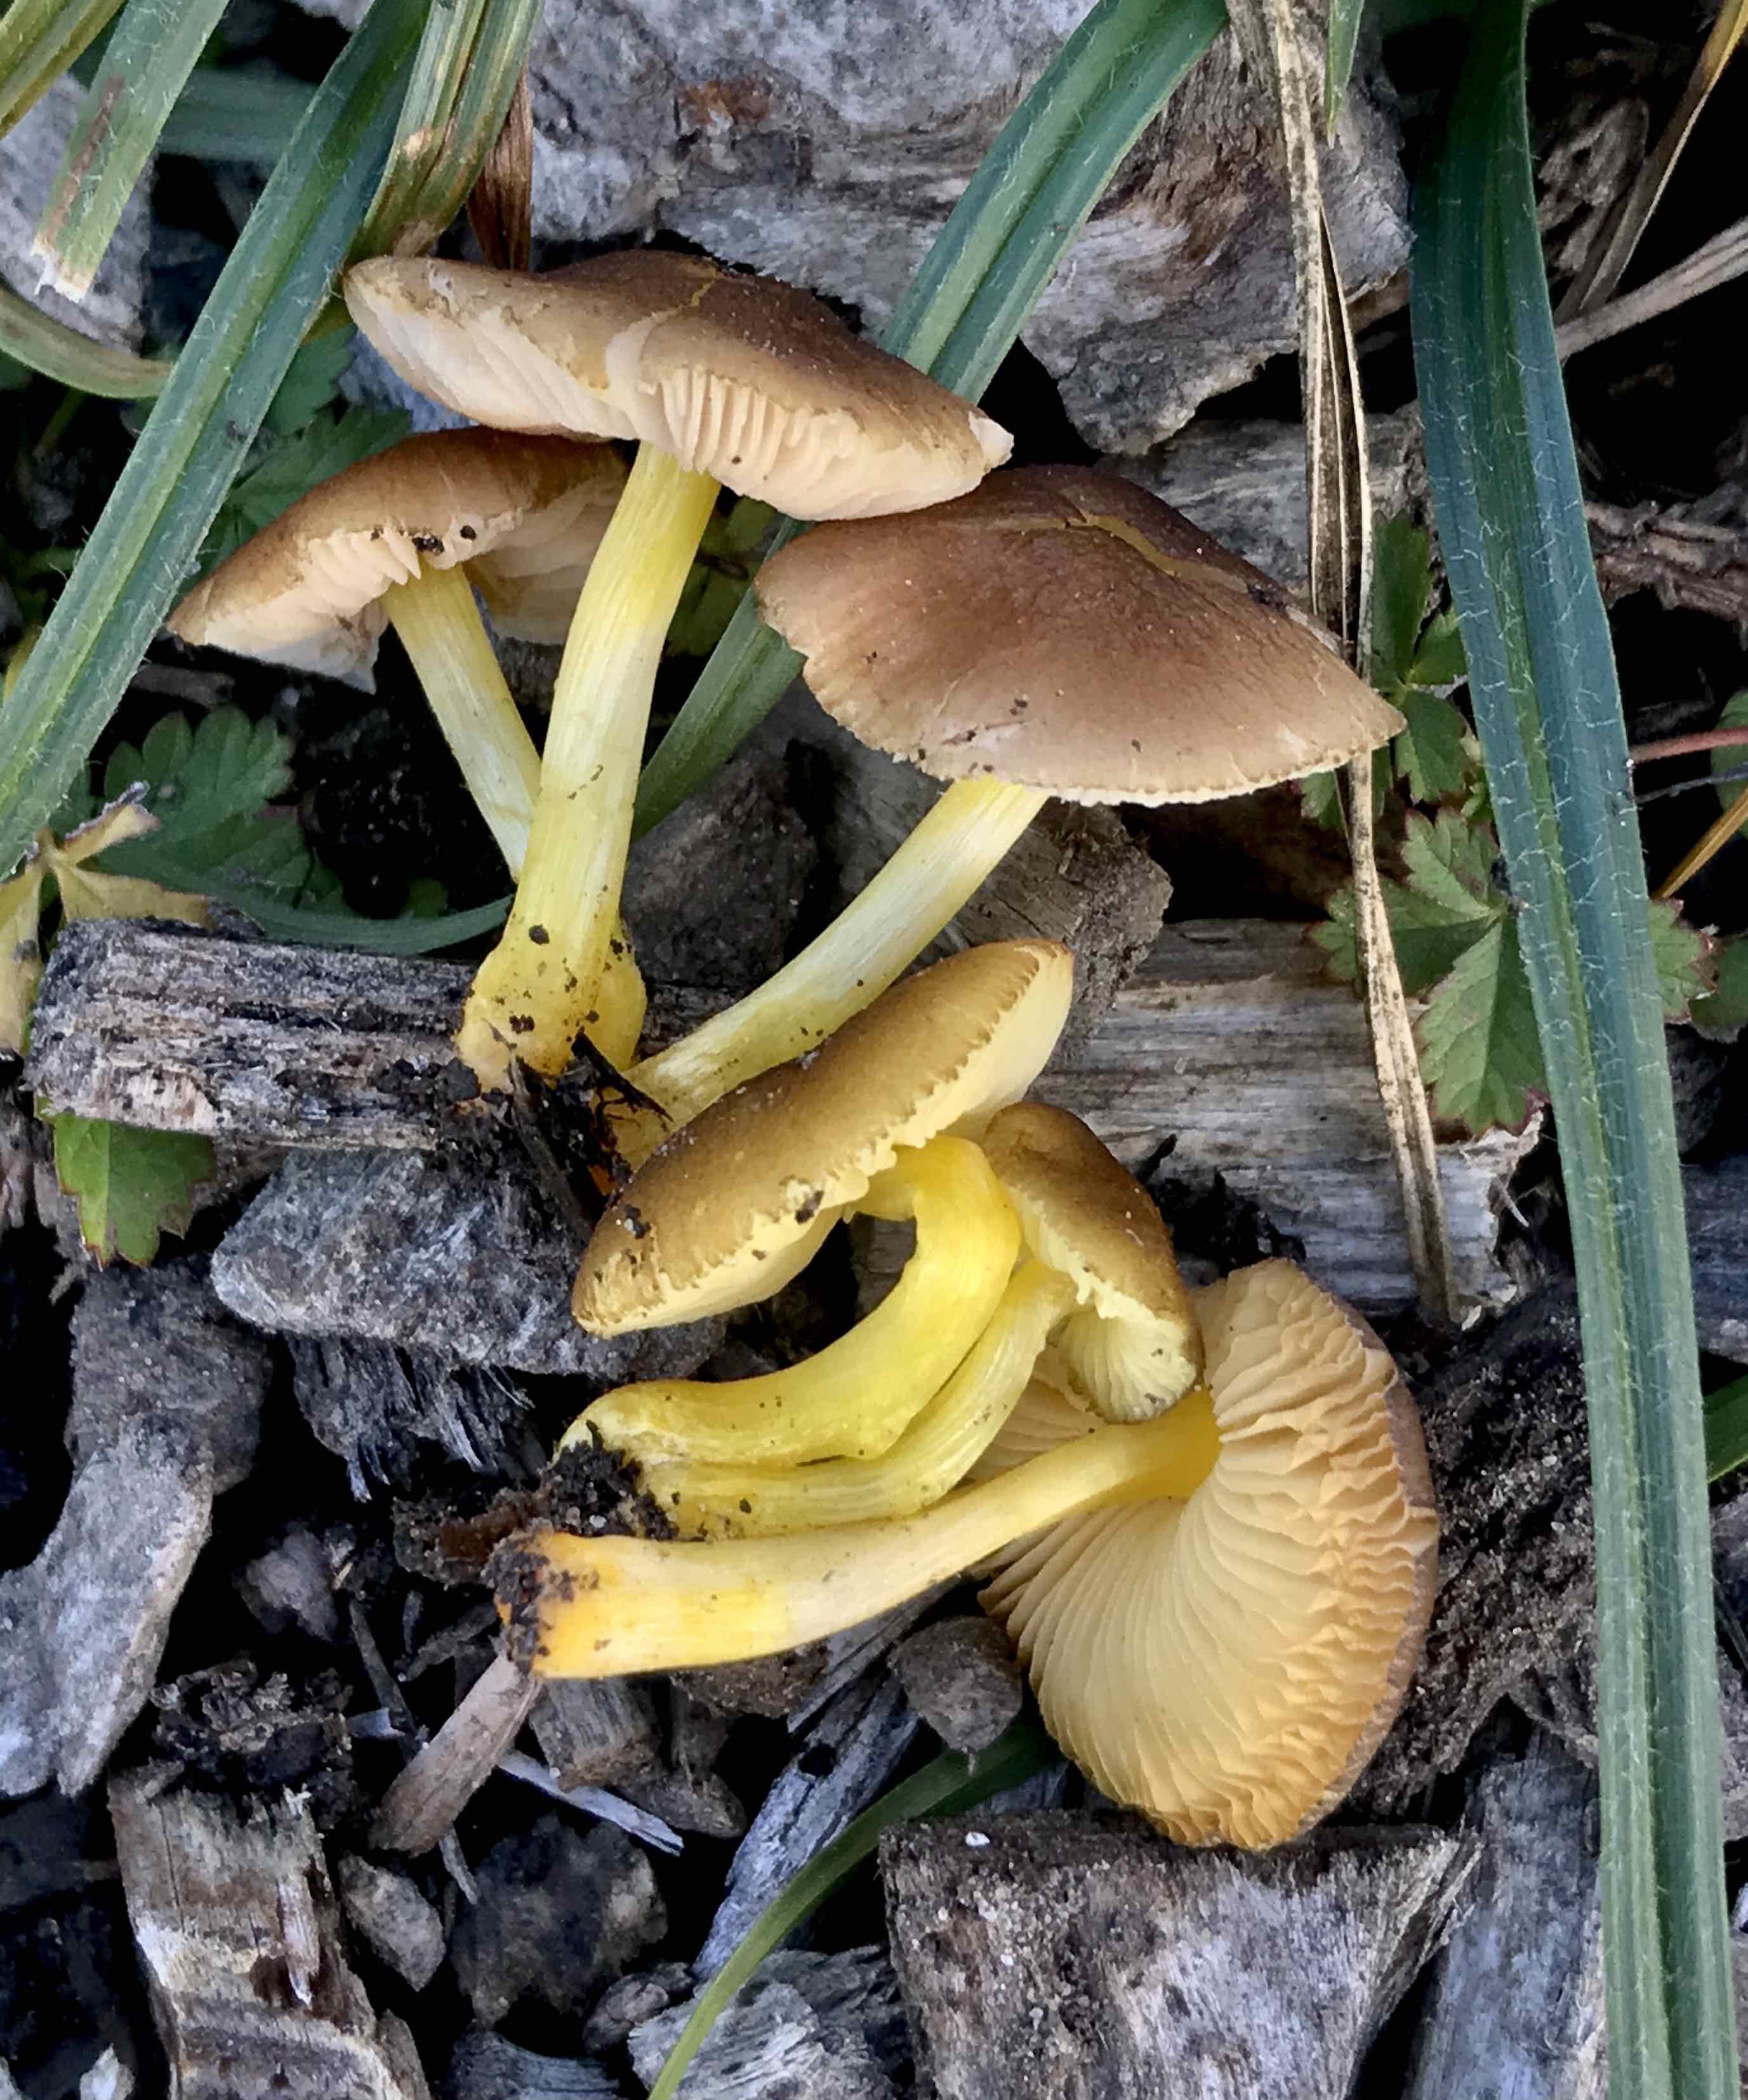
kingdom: Fungi
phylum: Basidiomycota
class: Agaricomycetes
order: Agaricales
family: Pluteaceae
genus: Pluteus
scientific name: Pluteus romellii
